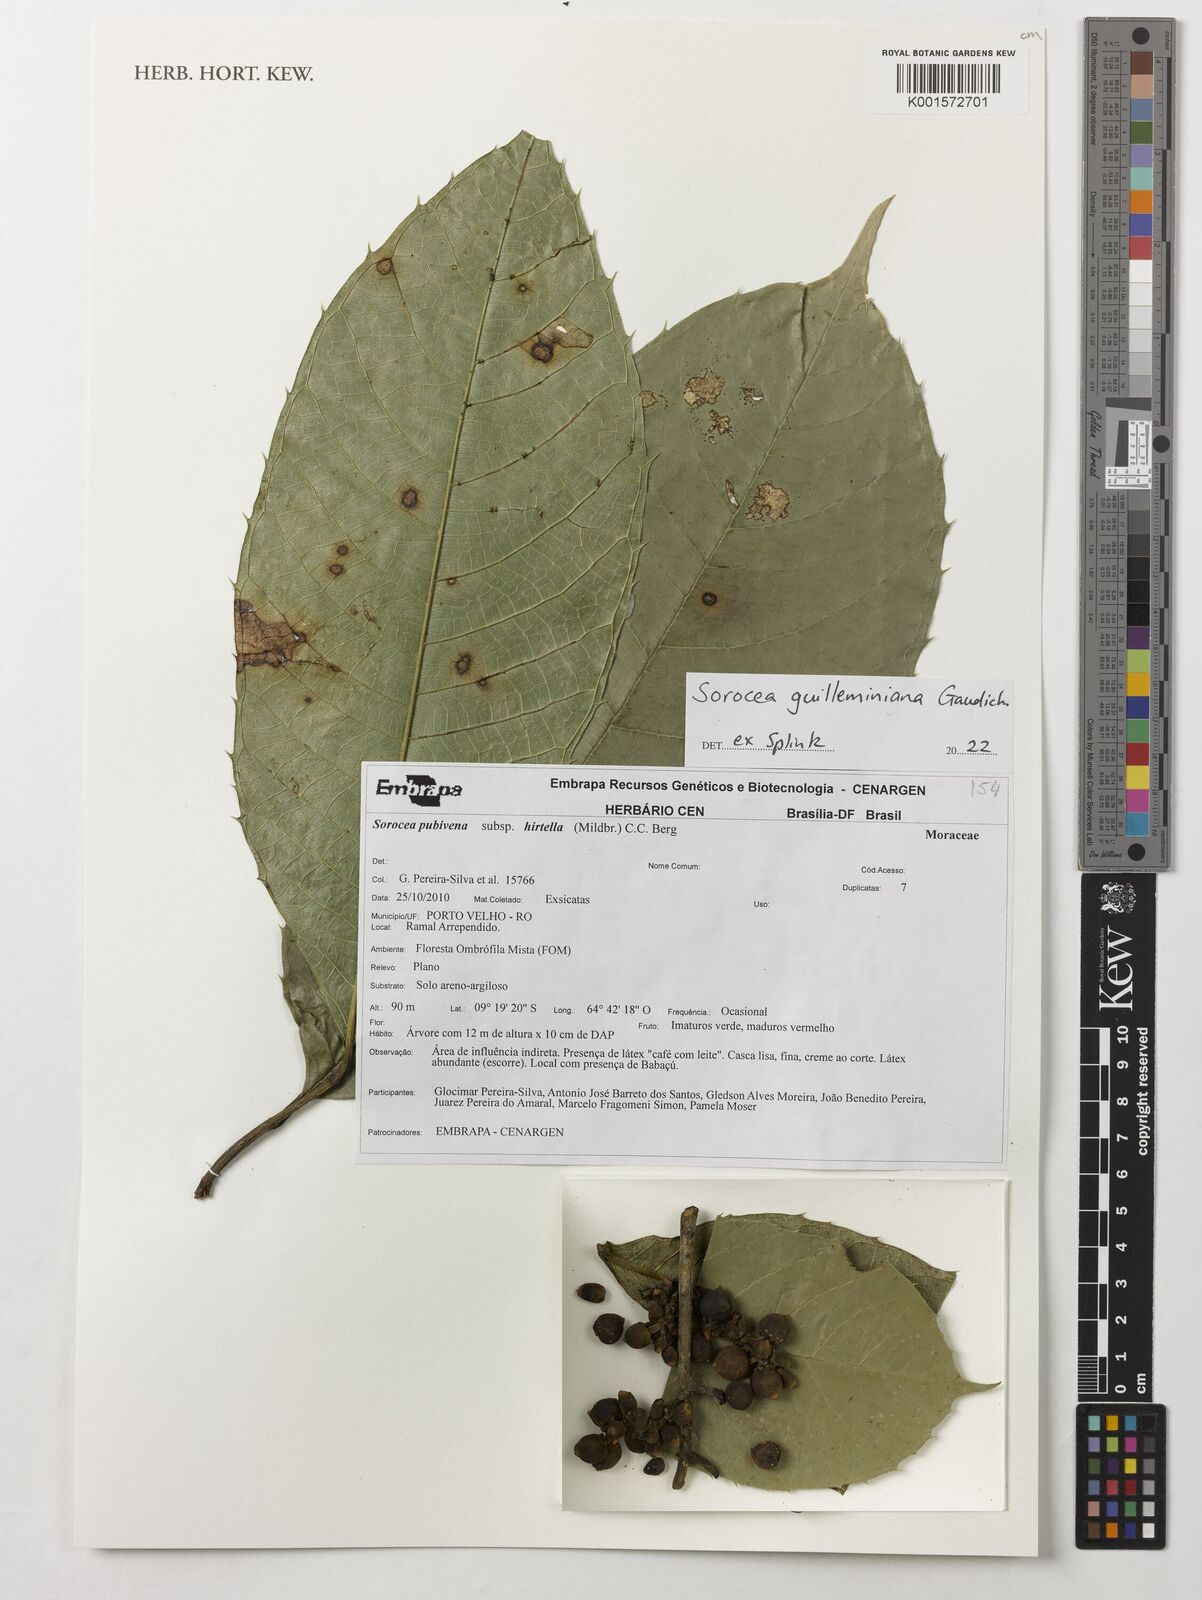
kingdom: Plantae
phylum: Tracheophyta
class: Magnoliopsida
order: Rosales
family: Moraceae
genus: Sorocea
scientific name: Sorocea guilleminiana
